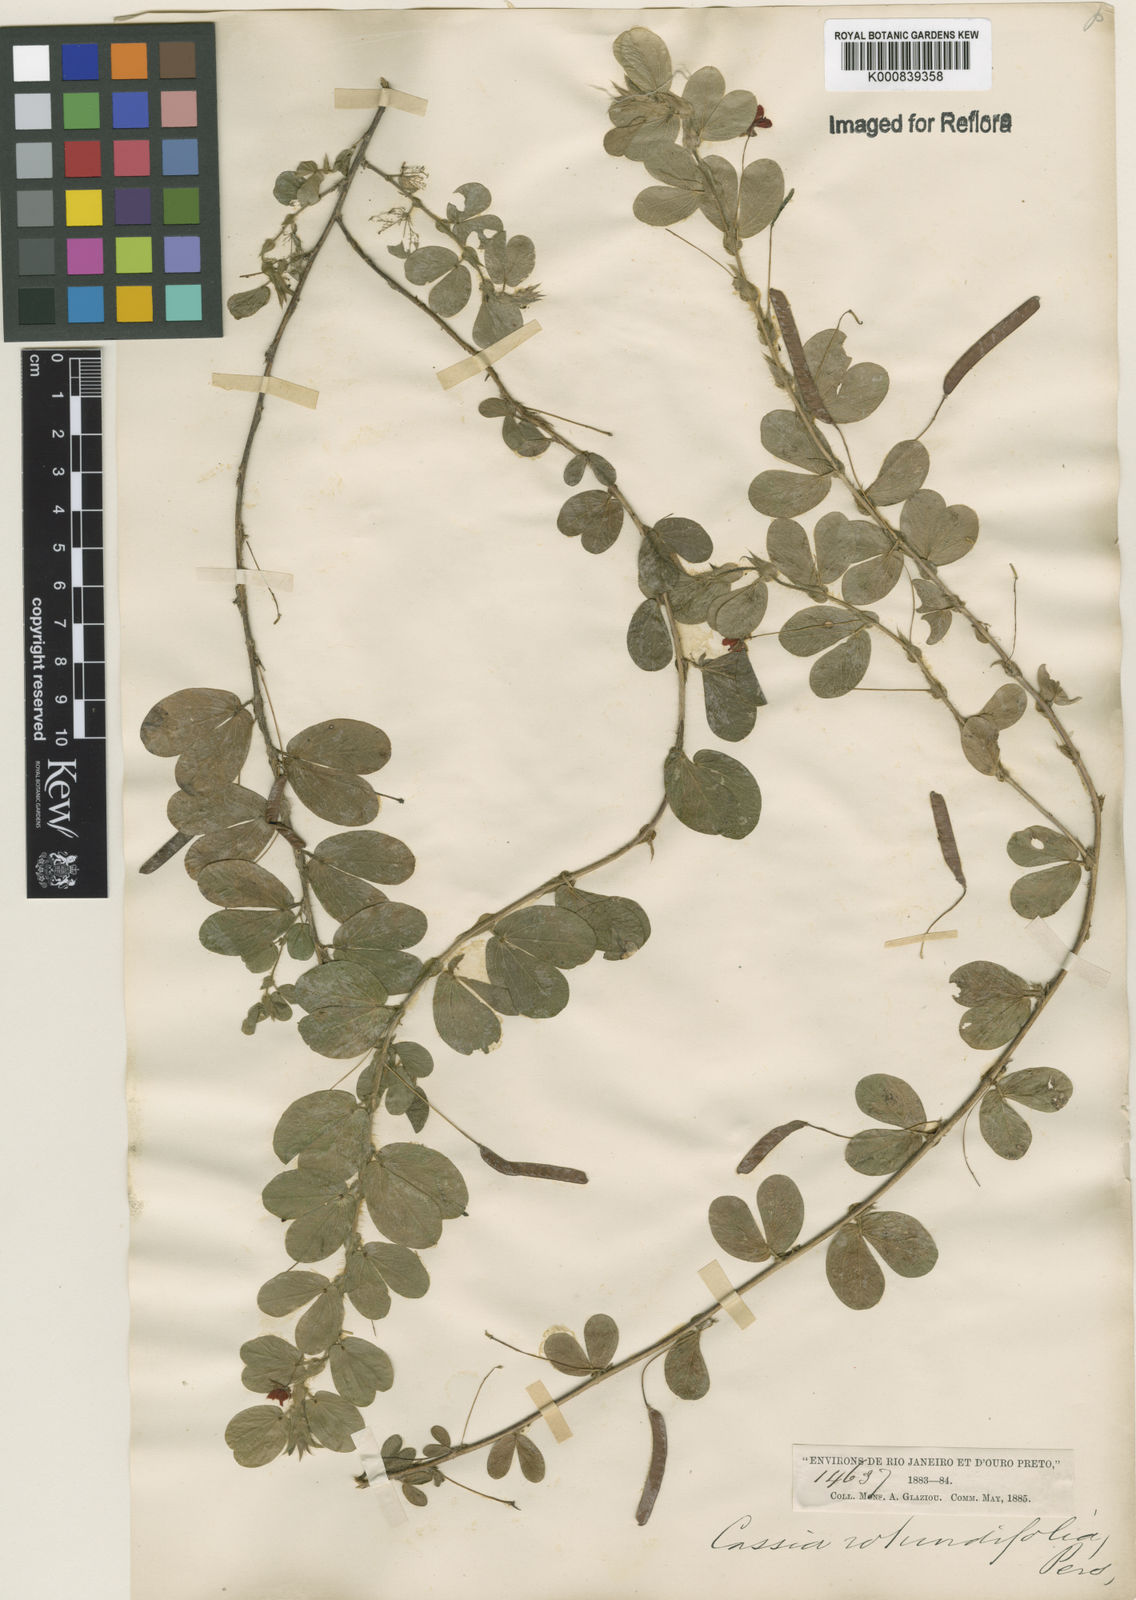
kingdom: Plantae
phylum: Tracheophyta
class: Magnoliopsida
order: Fabales
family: Fabaceae
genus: Chamaecrista
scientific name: Chamaecrista rotundifolia
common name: Round-leaf cassia
